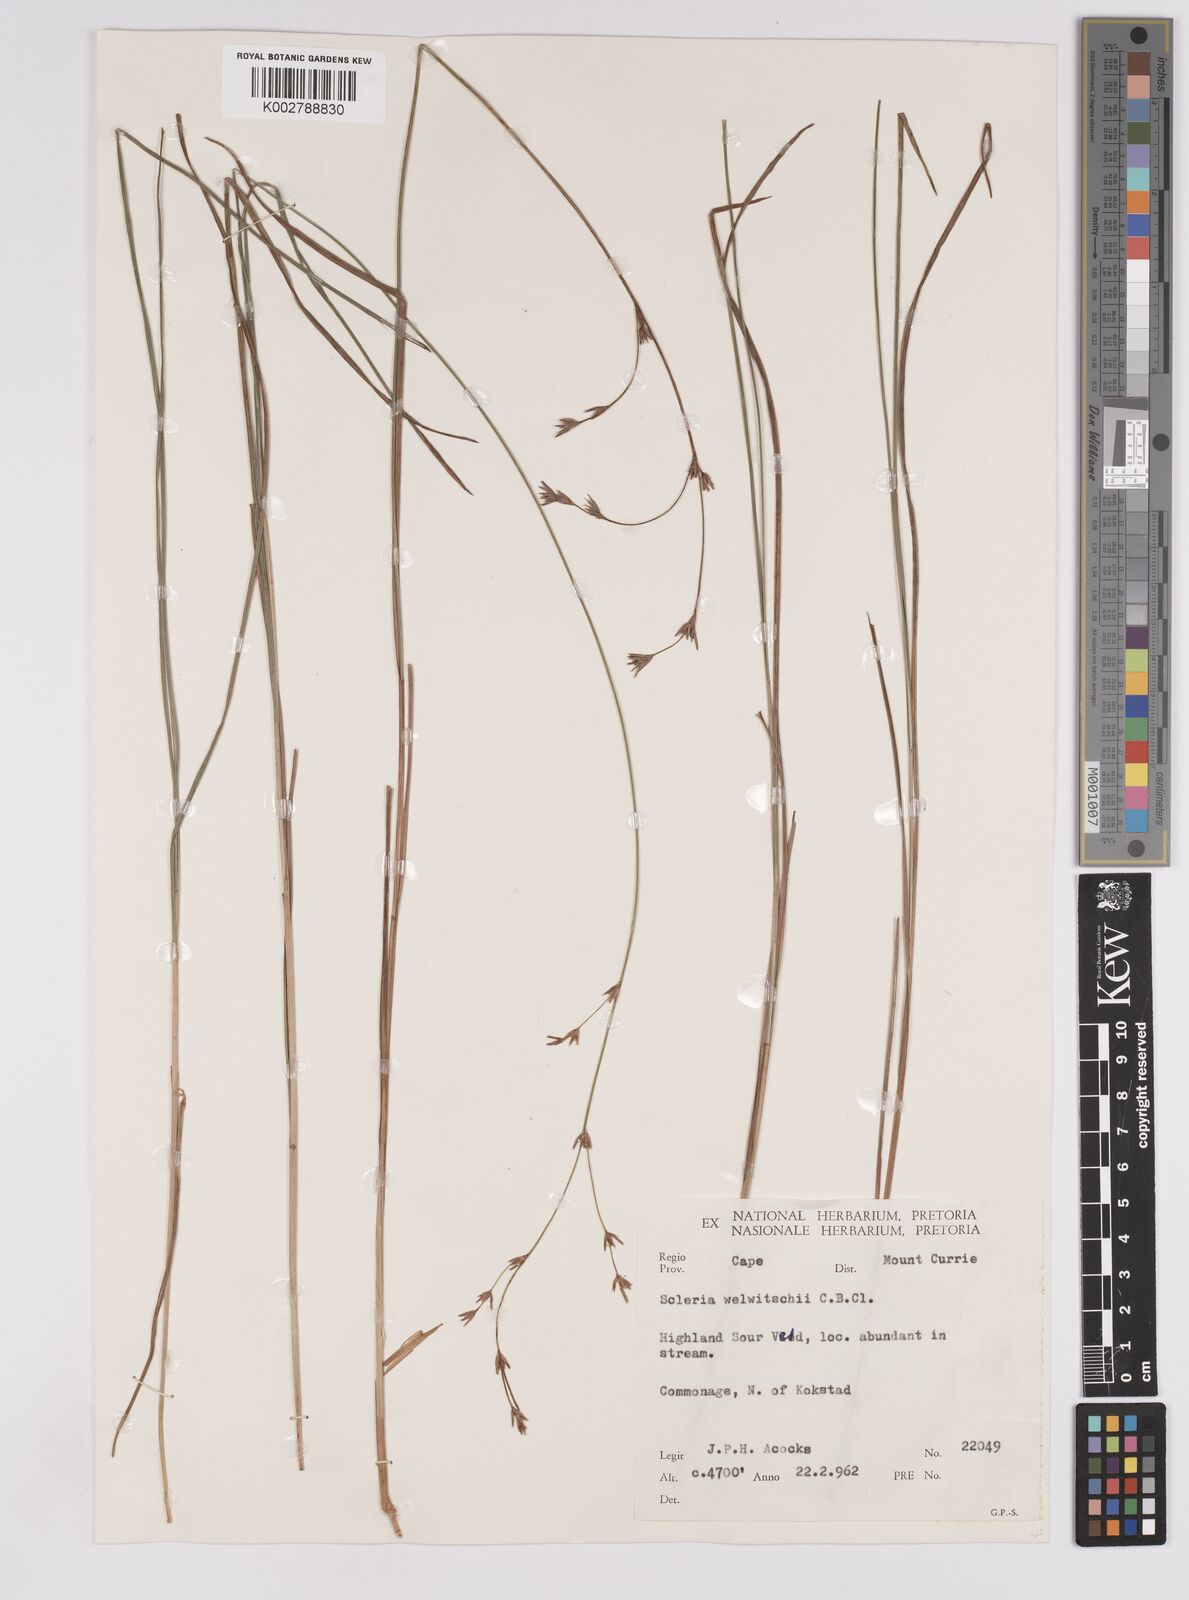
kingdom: Plantae
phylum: Tracheophyta
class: Liliopsida
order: Poales
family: Cyperaceae
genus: Scleria
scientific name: Scleria welwitschii
